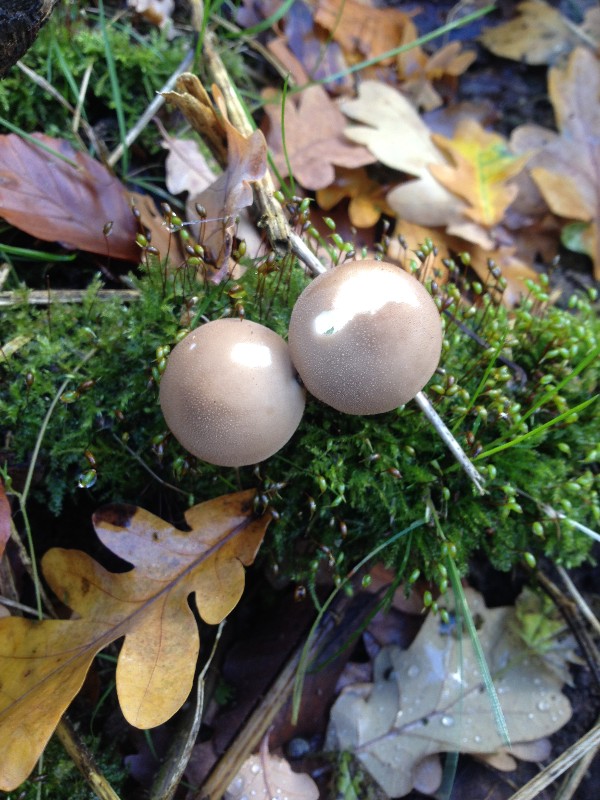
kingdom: Fungi
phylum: Basidiomycota
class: Agaricomycetes
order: Agaricales
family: Lycoperdaceae
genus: Apioperdon
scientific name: Apioperdon pyriforme
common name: pære-støvbold
